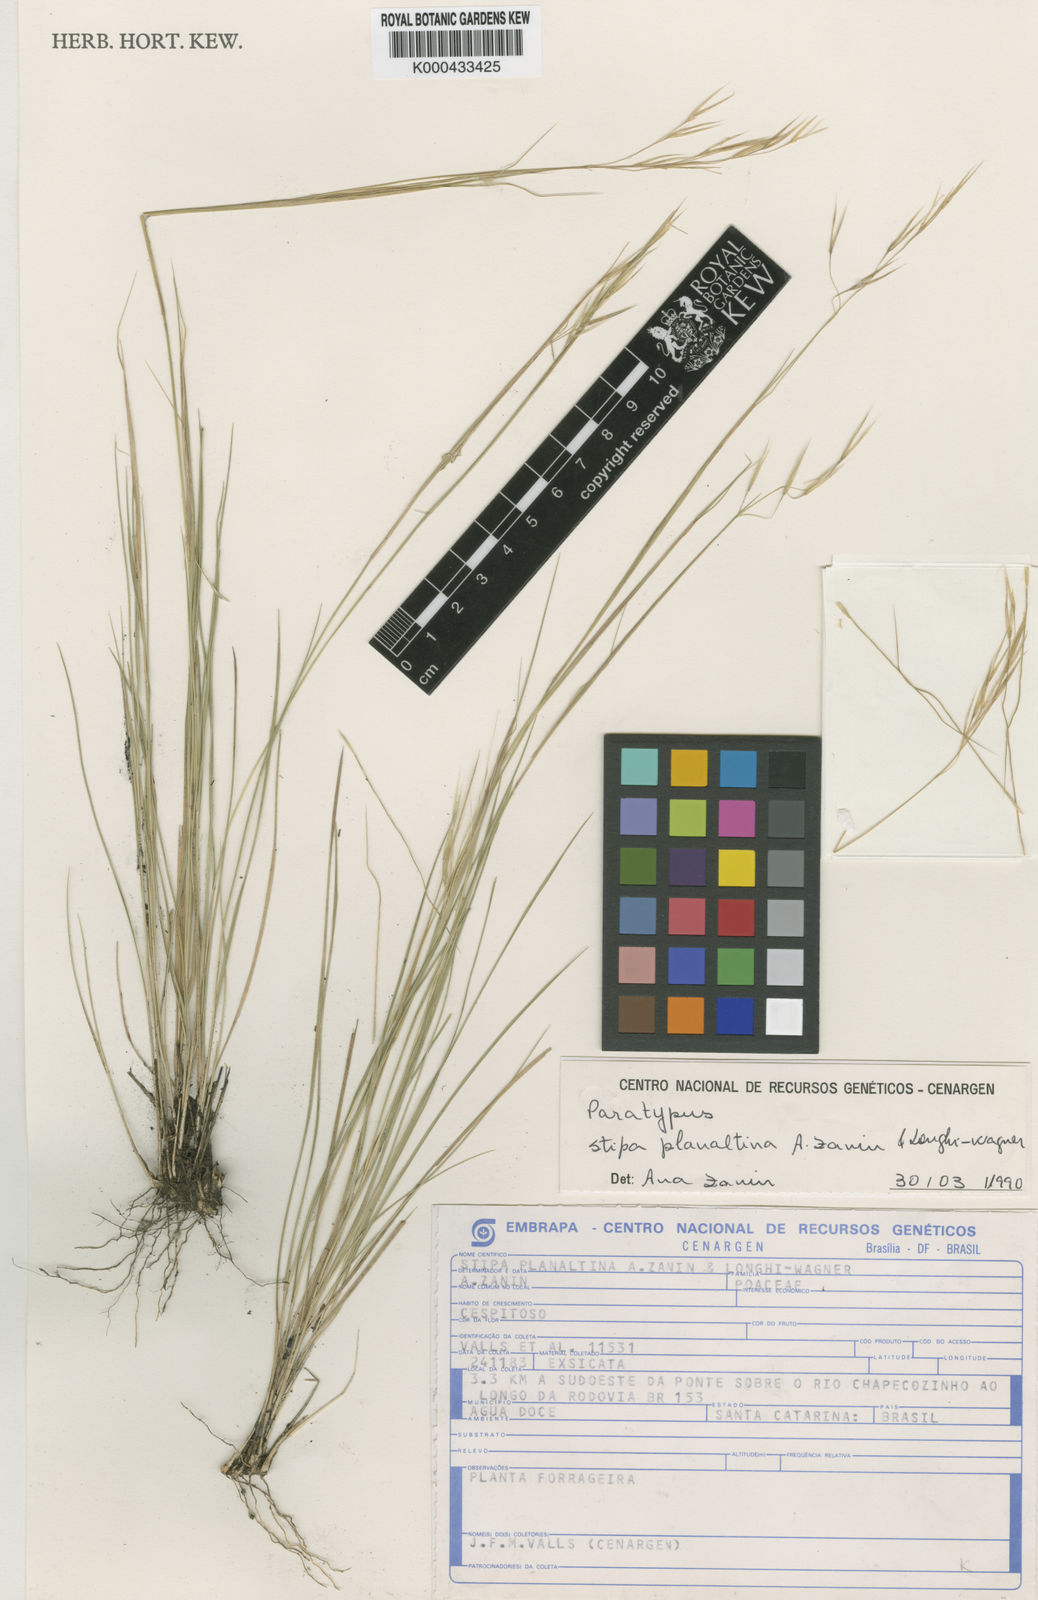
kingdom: Plantae
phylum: Tracheophyta
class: Liliopsida
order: Poales
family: Poaceae
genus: Nassella
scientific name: Nassella planaltina
